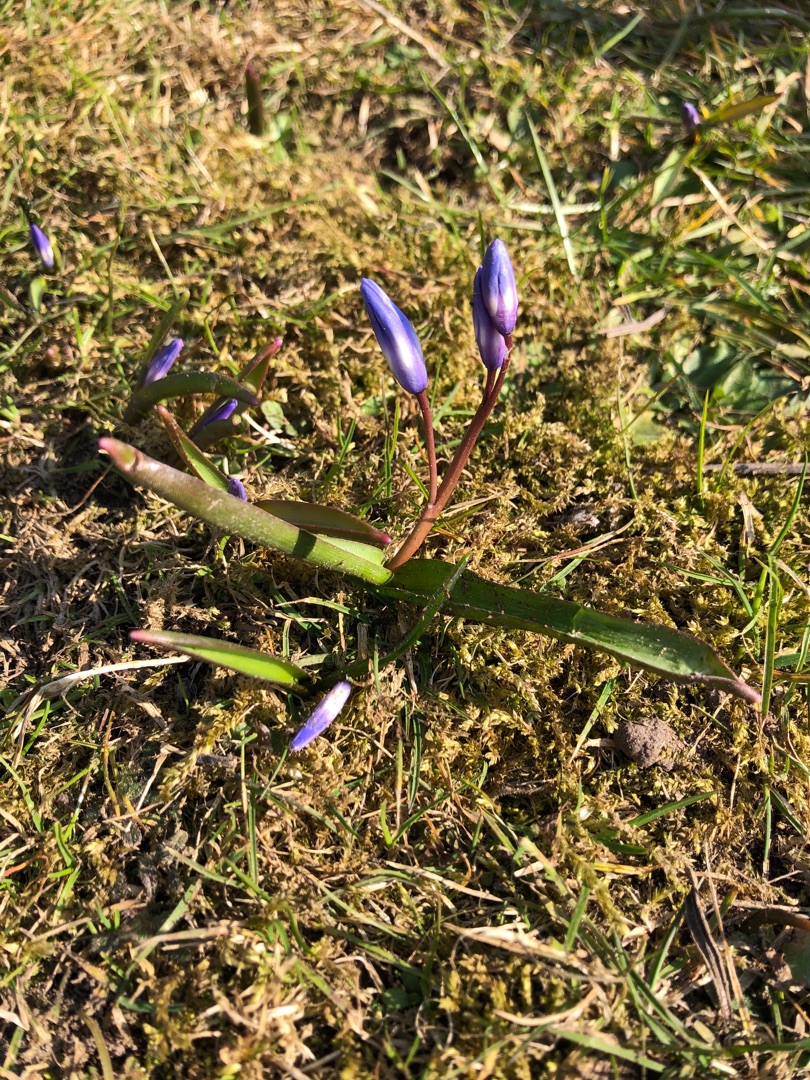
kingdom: Plantae
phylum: Tracheophyta
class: Liliopsida
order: Asparagales
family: Asparagaceae
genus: Scilla
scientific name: Scilla forbesii
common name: Almindelig snepryd
